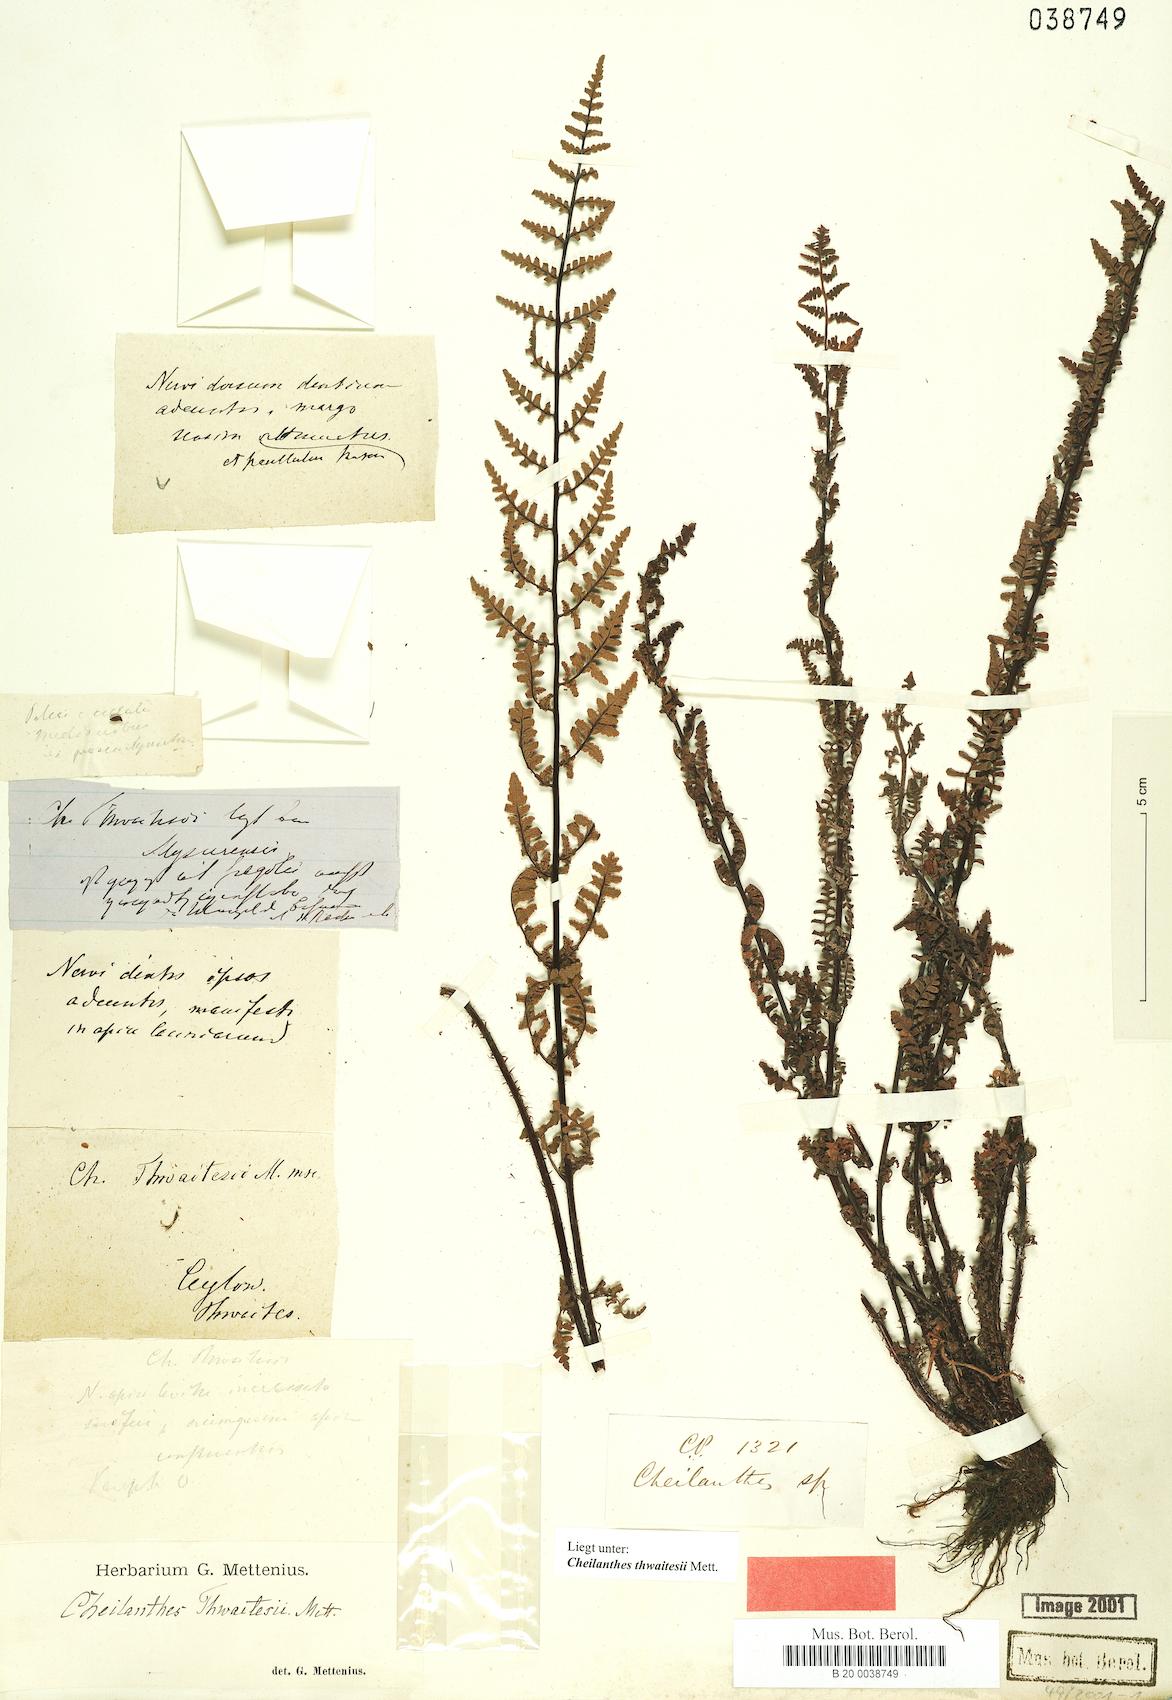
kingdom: Plantae
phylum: Tracheophyta
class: Polypodiopsida
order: Polypodiales
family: Pteridaceae
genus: Oeosporangium
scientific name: Oeosporangium thwaitesii
